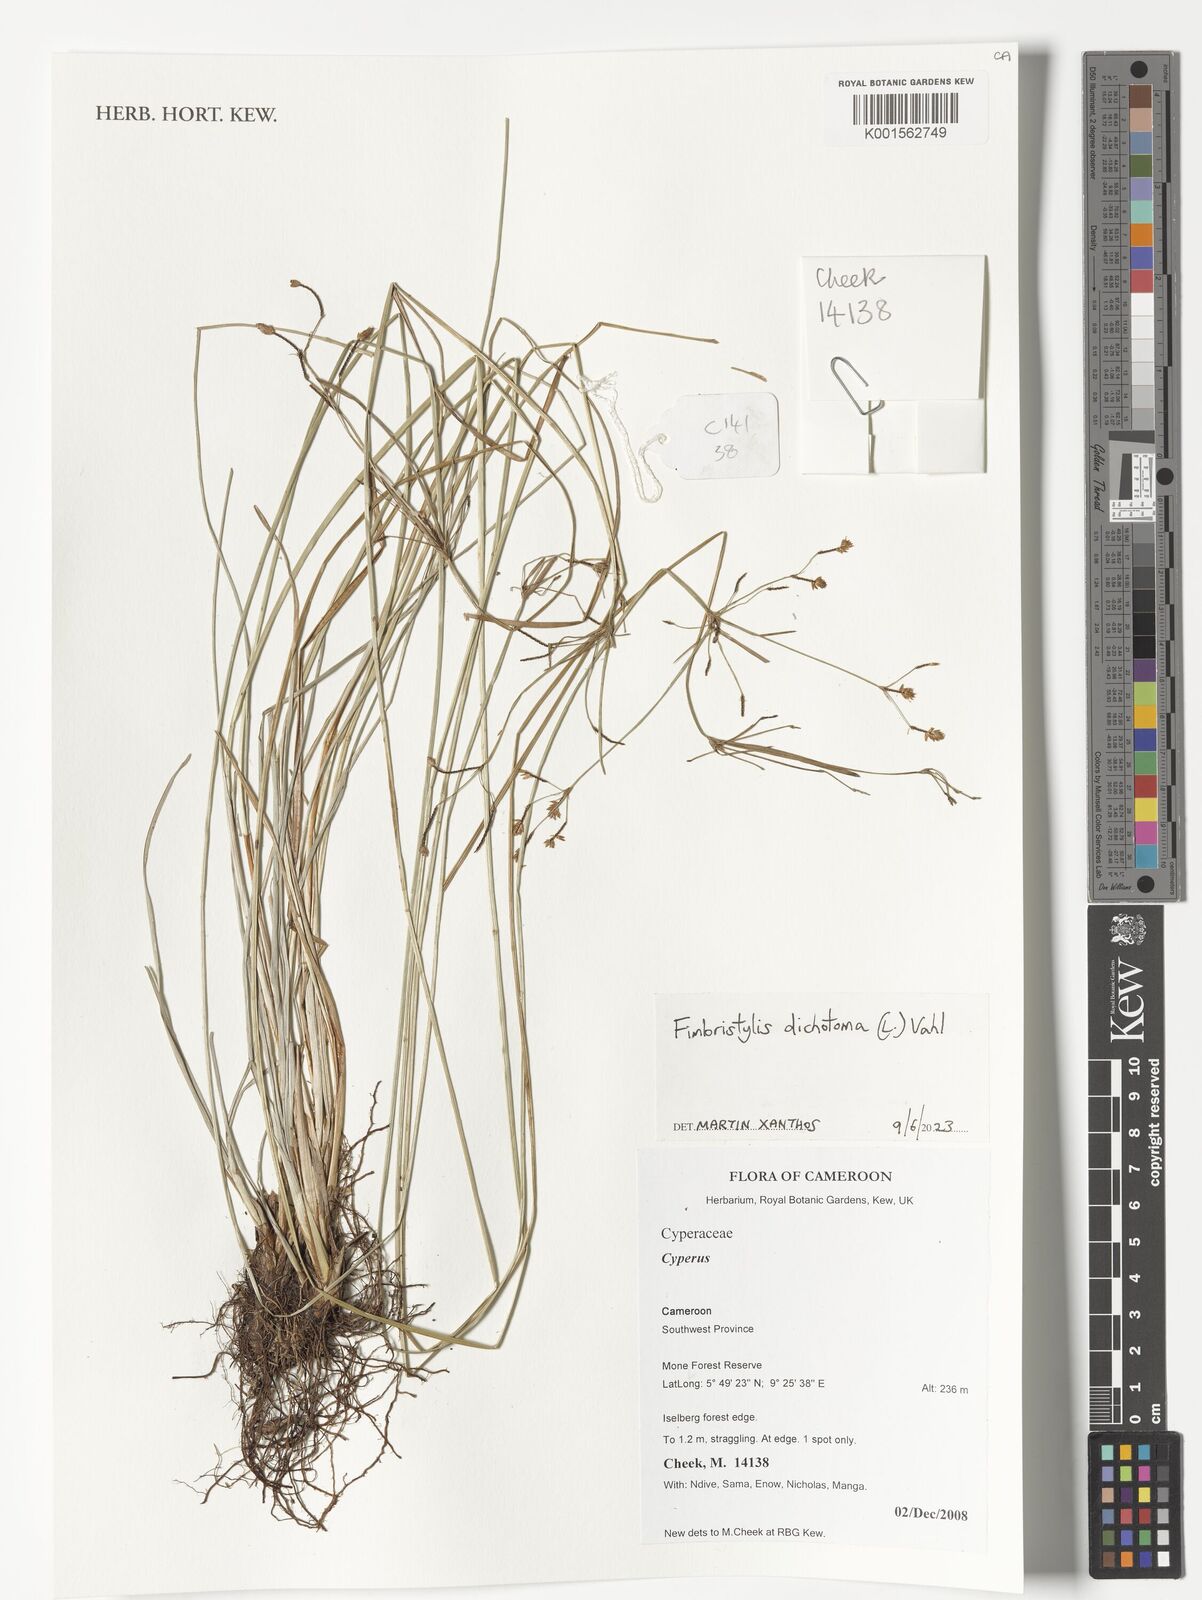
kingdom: Plantae
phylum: Tracheophyta
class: Liliopsida
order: Poales
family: Cyperaceae
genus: Fimbristylis
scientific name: Fimbristylis dichotoma
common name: Forked fimbry
